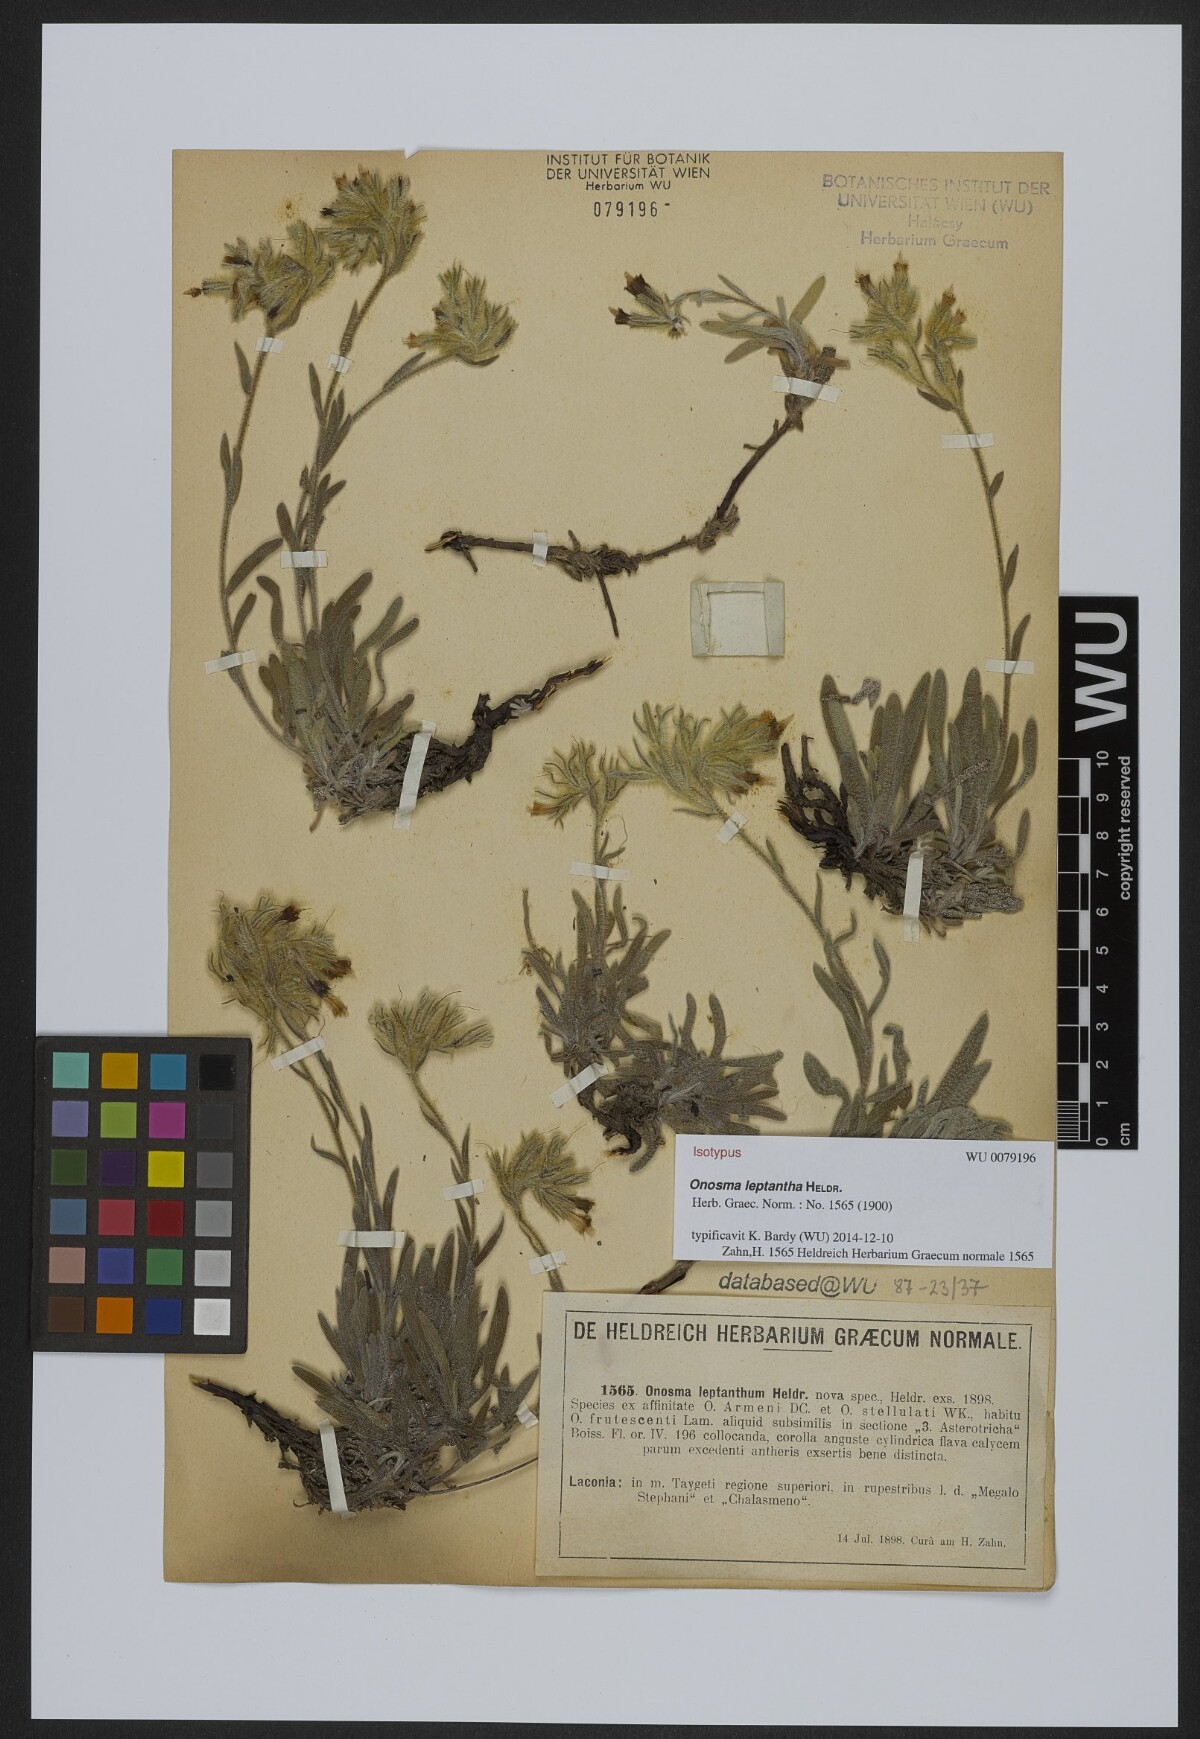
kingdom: Plantae
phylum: Tracheophyta
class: Magnoliopsida
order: Boraginales
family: Boraginaceae
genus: Onosma
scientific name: Onosma leptantha
